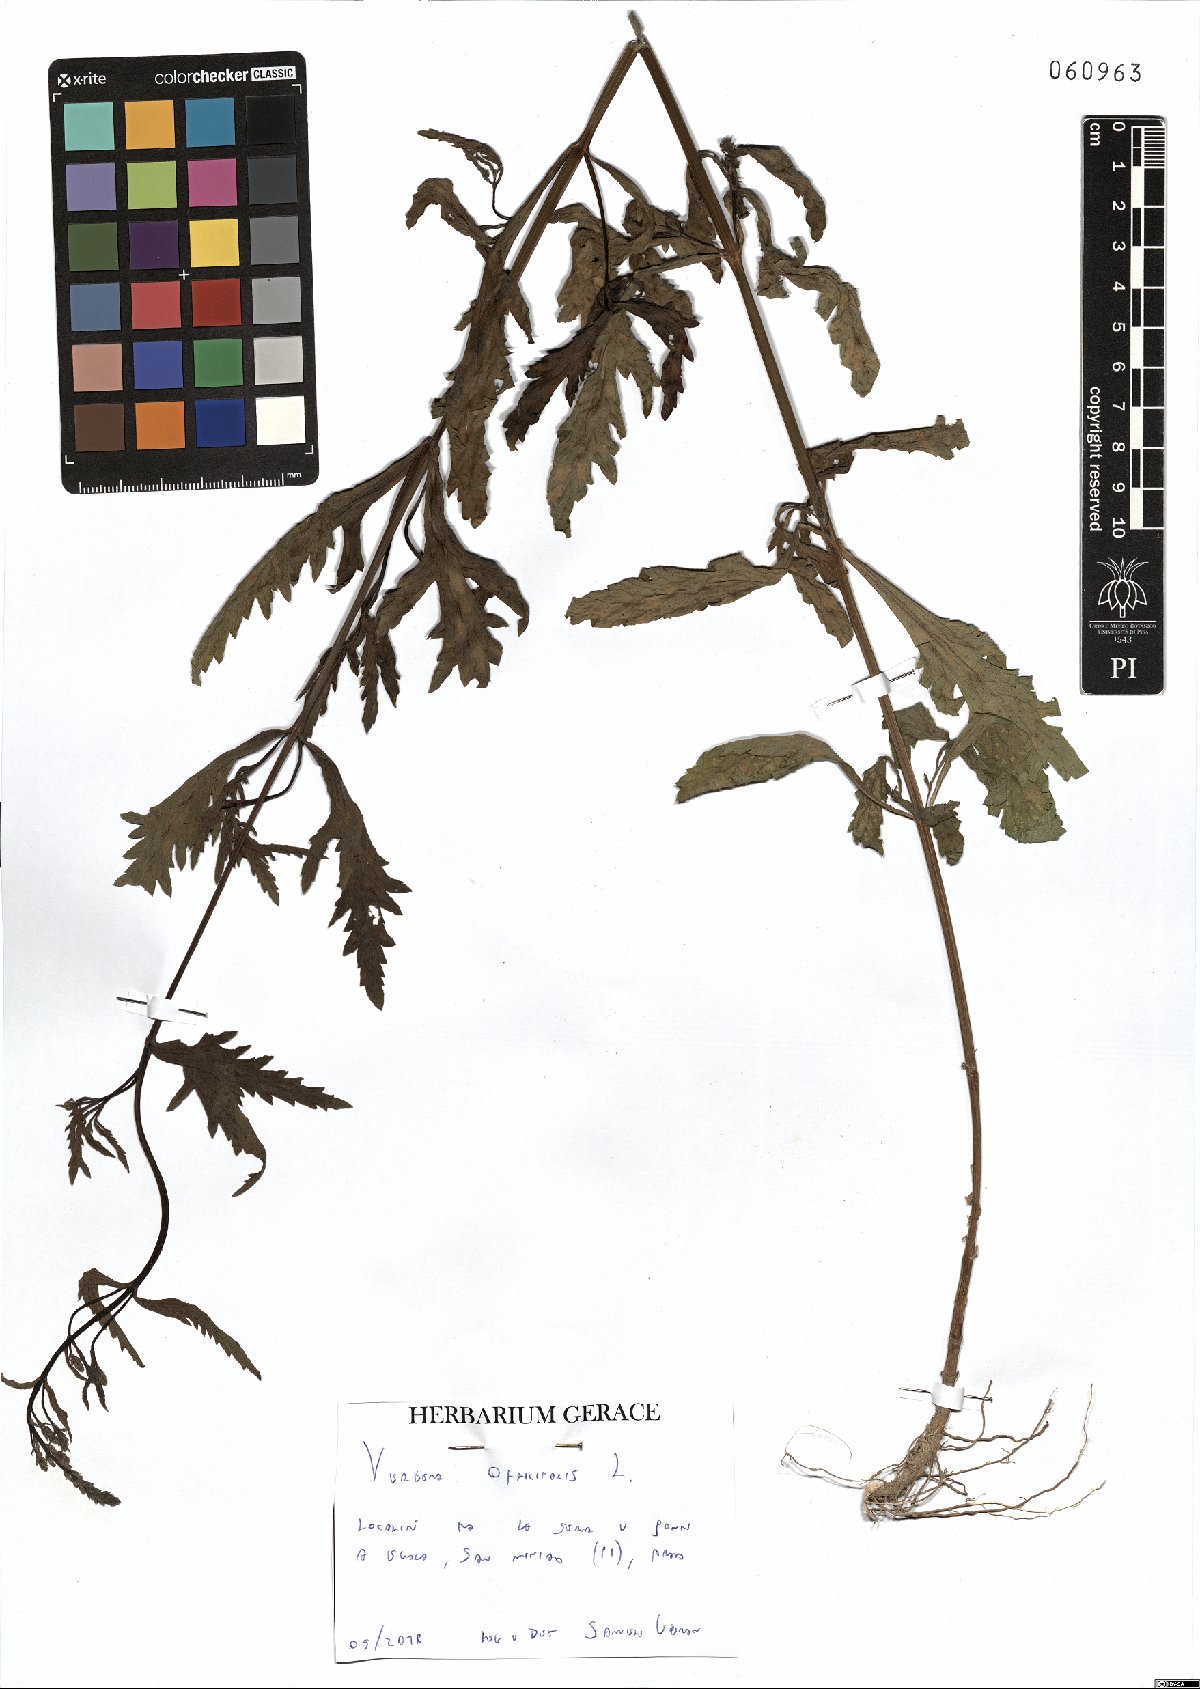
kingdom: Plantae
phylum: Tracheophyta
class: Magnoliopsida
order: Lamiales
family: Verbenaceae
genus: Verbena
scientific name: Verbena officinalis
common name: Vervain
